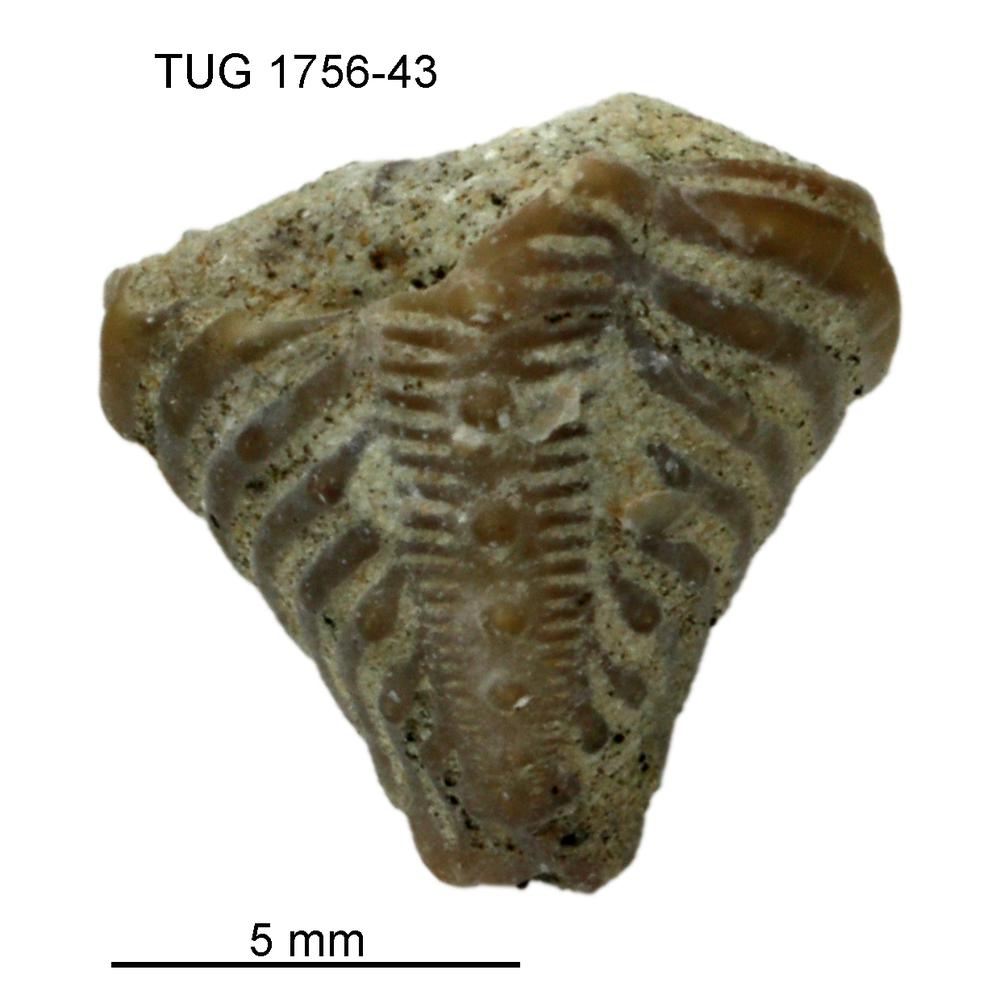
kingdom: Animalia
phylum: Arthropoda
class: Trilobita
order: Phacopida
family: Encrinuridae
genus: Encrinurus
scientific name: Encrinurus punctatus
